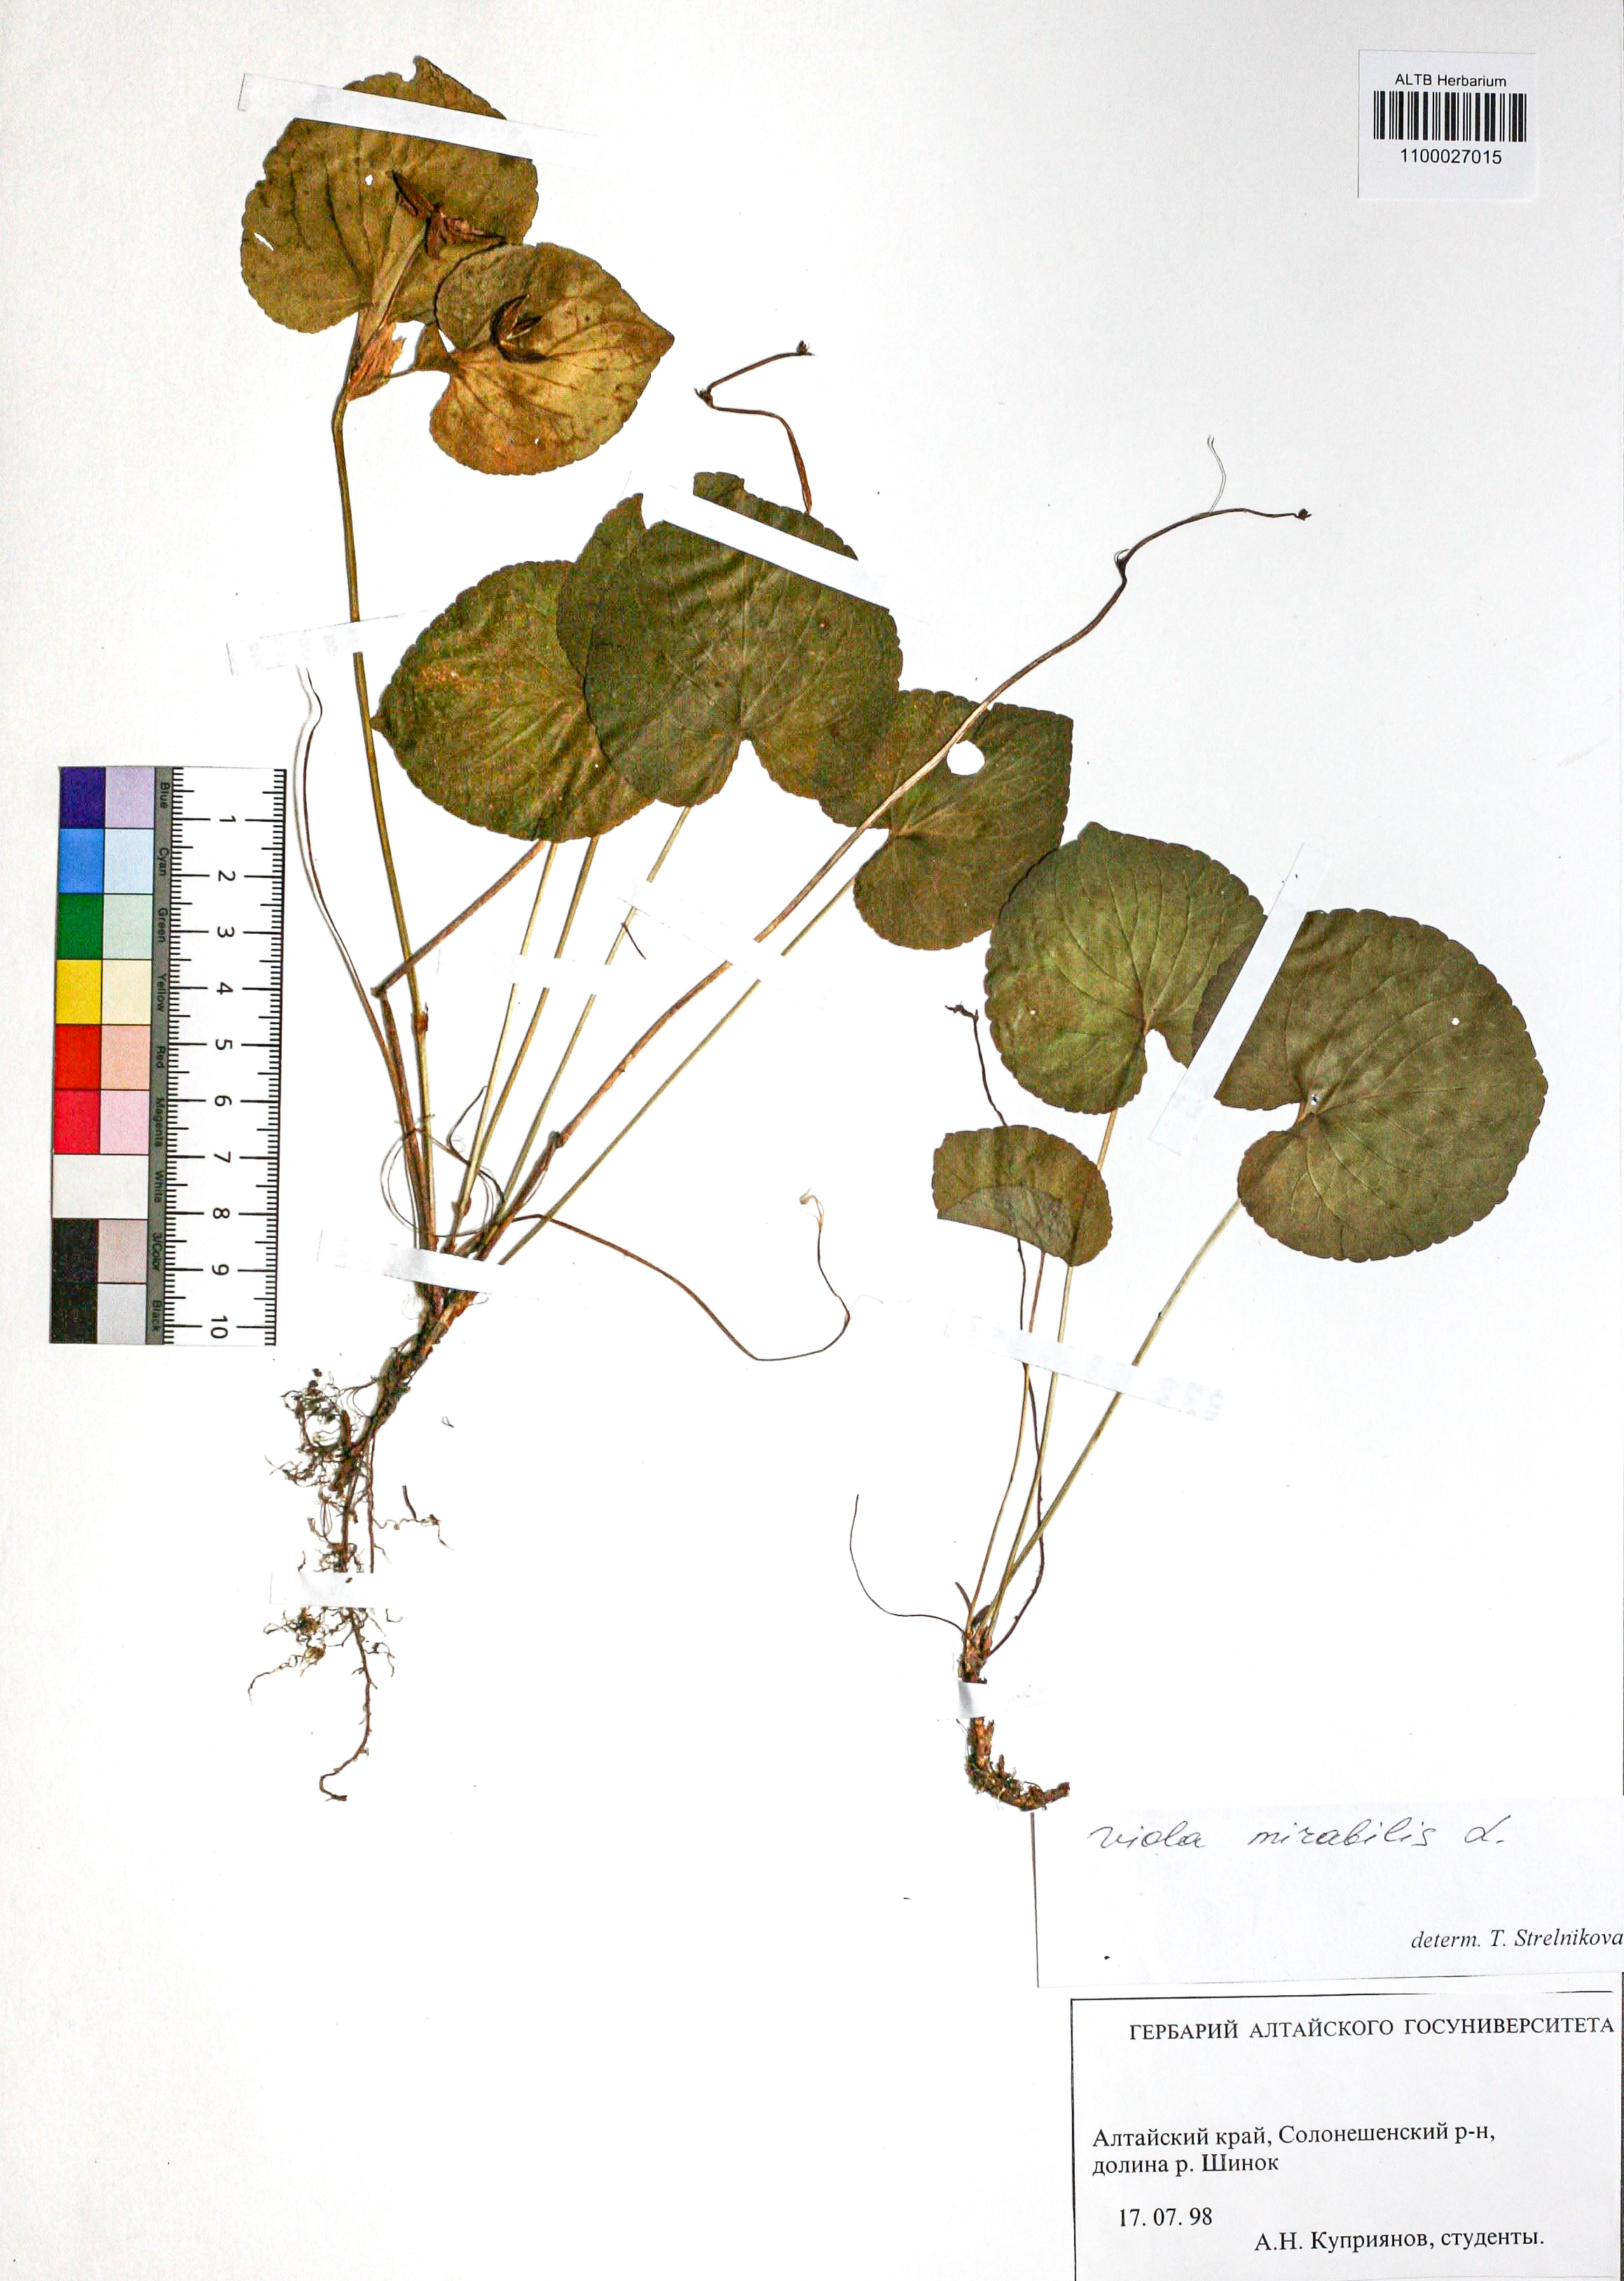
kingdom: Plantae
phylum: Tracheophyta
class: Magnoliopsida
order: Malpighiales
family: Violaceae
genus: Viola
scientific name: Viola mirabilis
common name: Wonder violet
